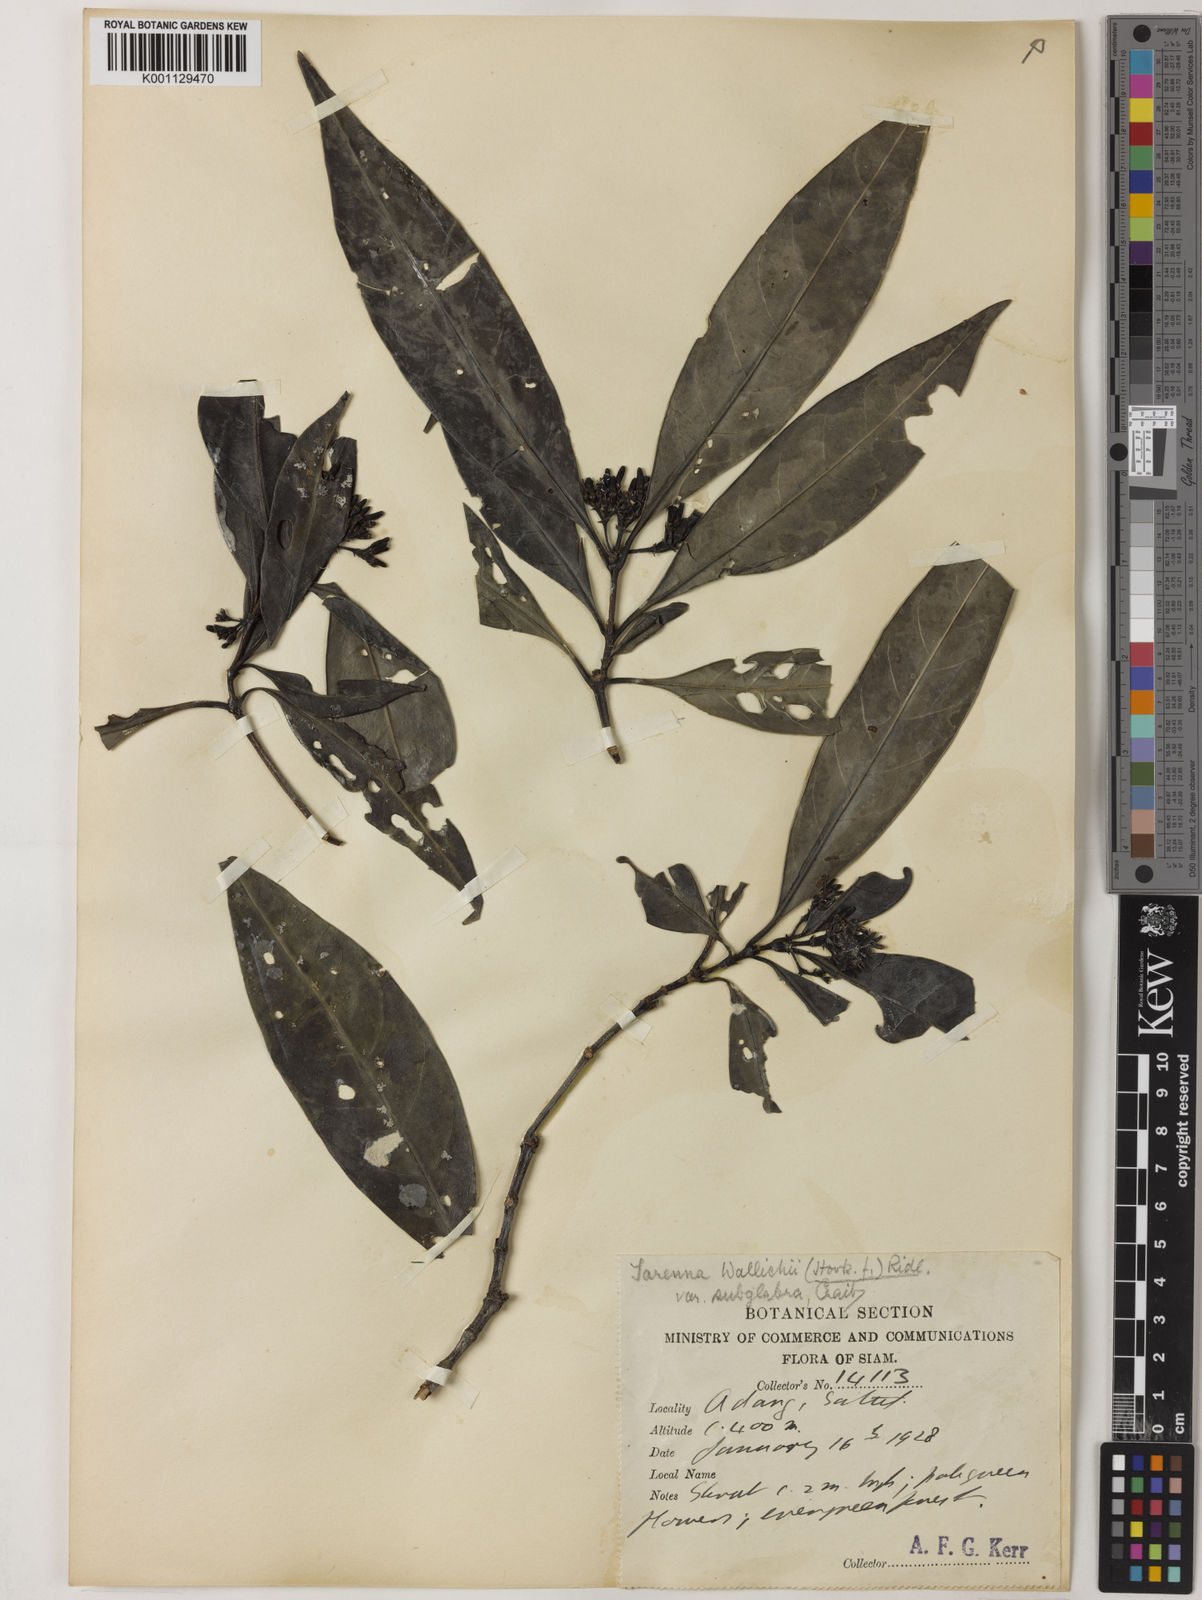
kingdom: Plantae
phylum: Tracheophyta
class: Magnoliopsida
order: Gentianales
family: Rubiaceae
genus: Tarenna
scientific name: Tarenna wallichii
